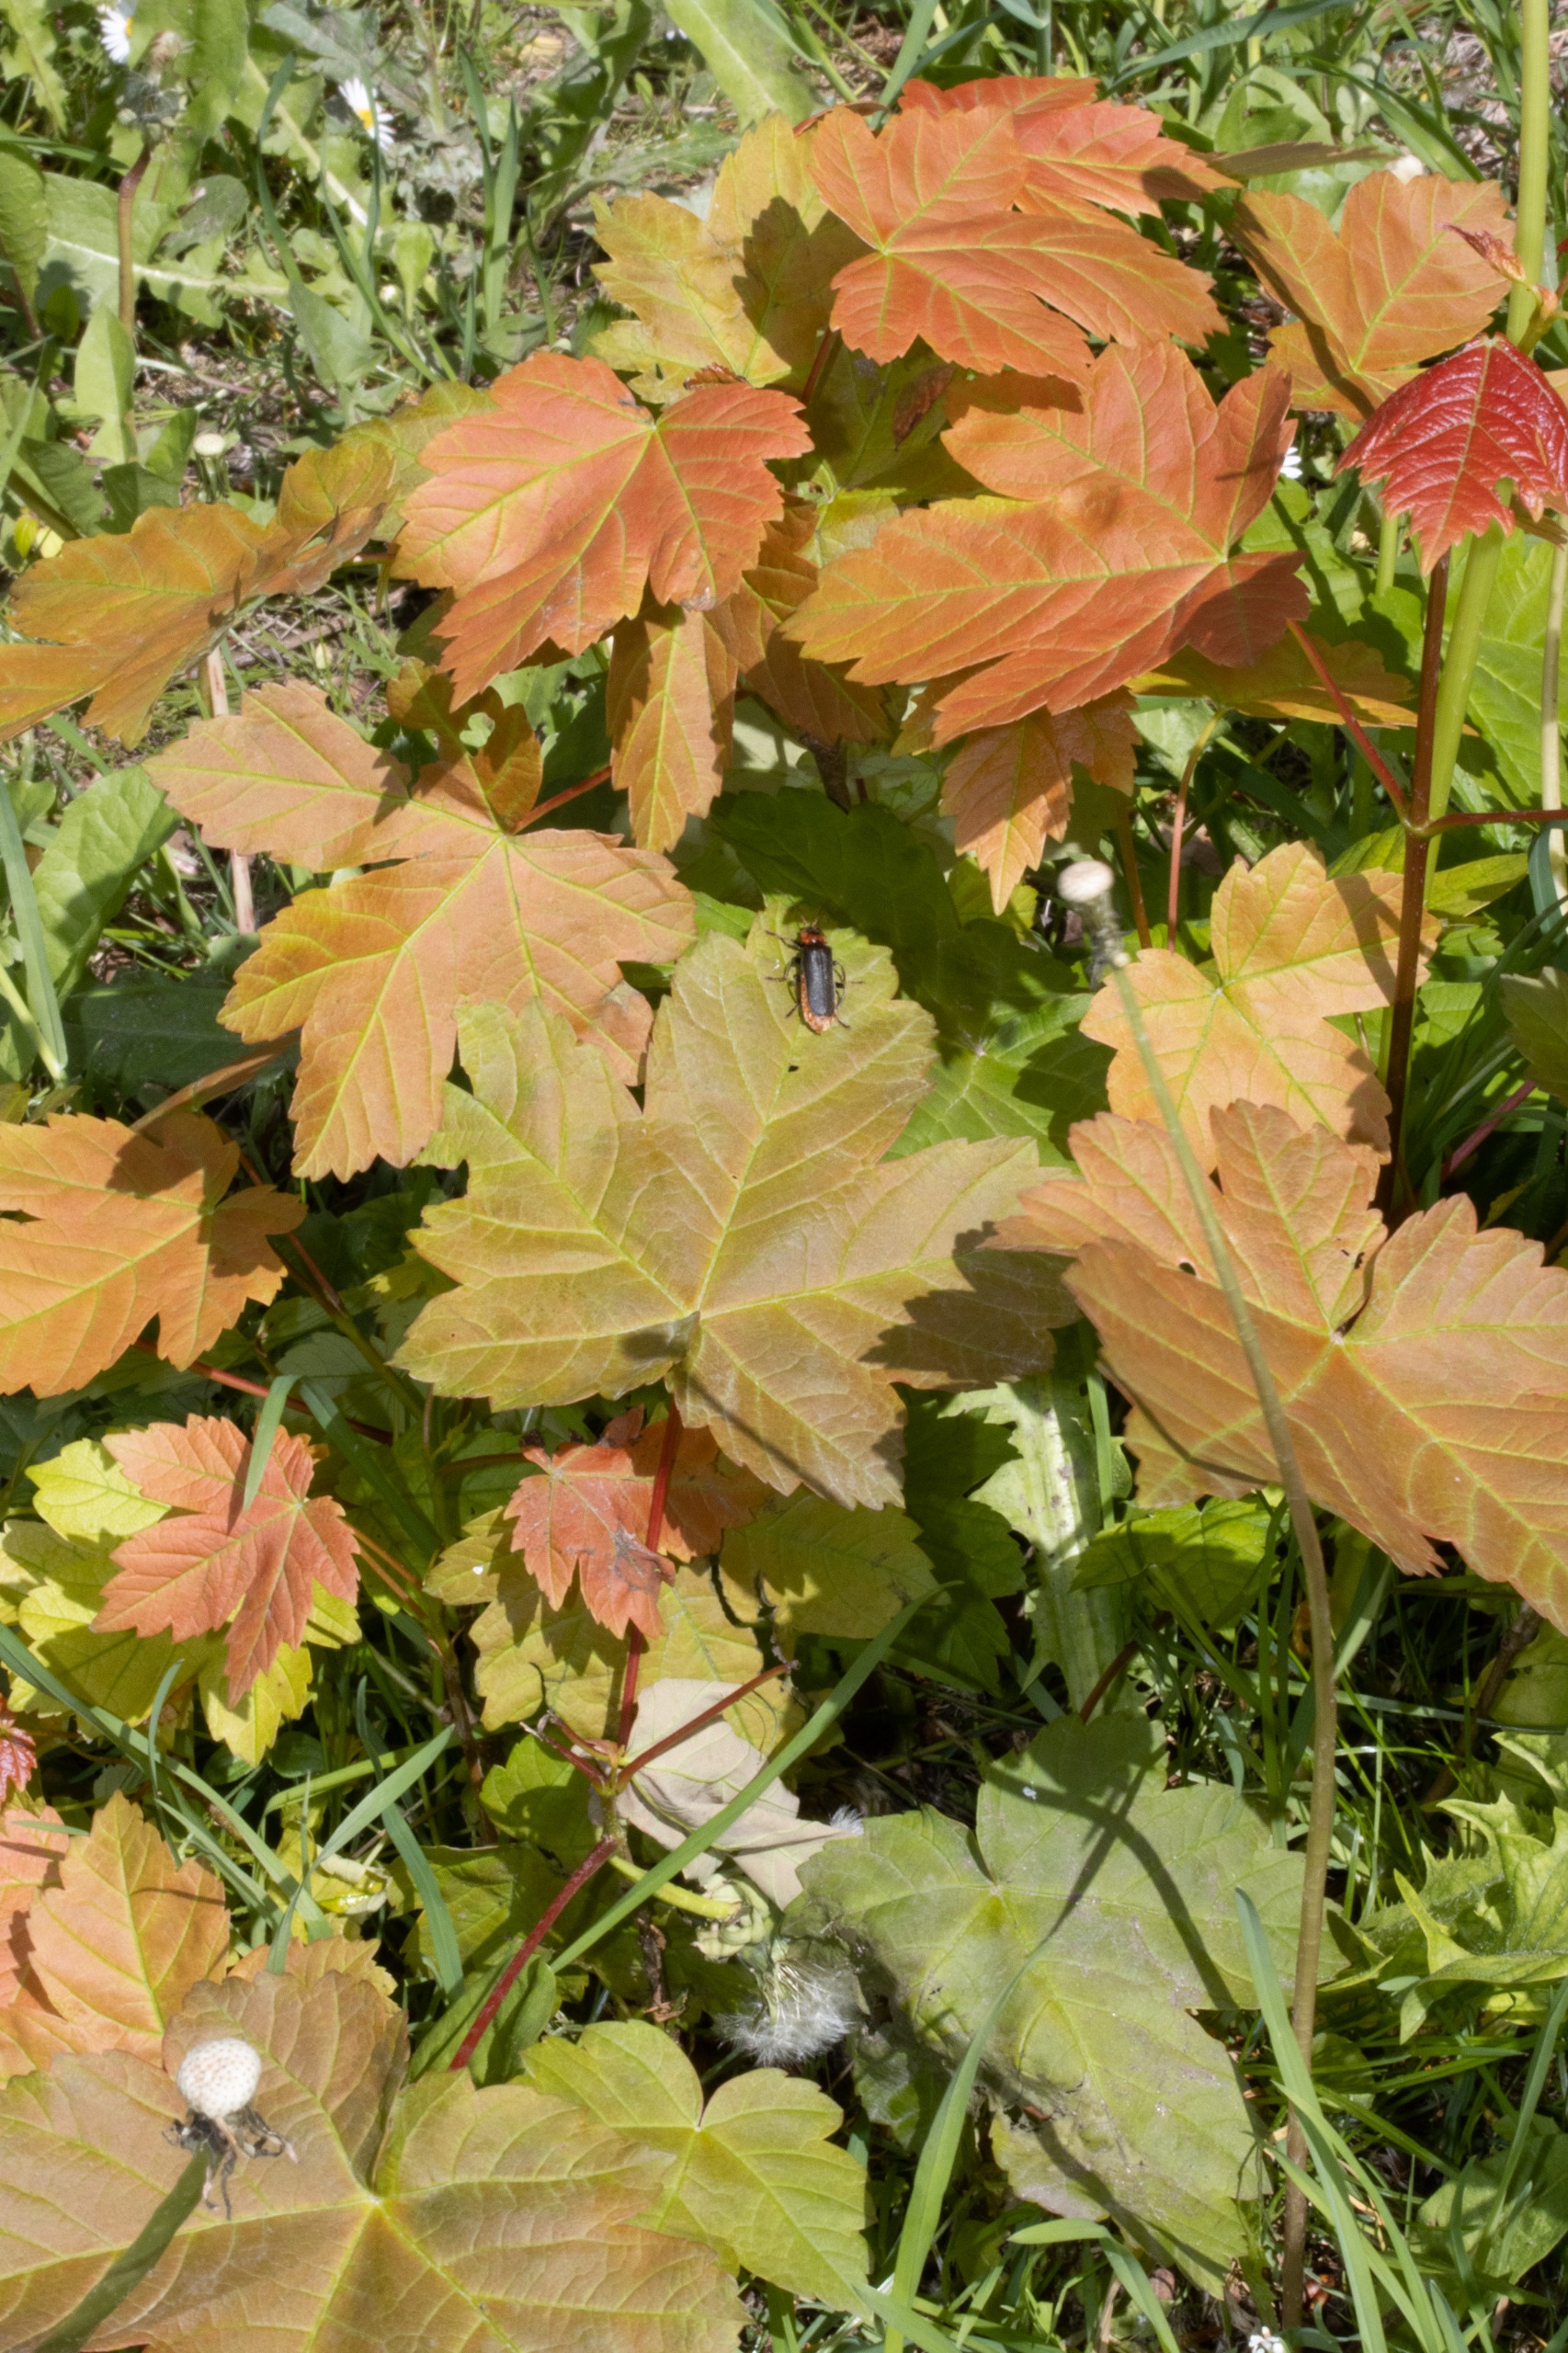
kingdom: Plantae
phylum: Tracheophyta
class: Magnoliopsida
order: Sapindales
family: Sapindaceae
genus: Acer
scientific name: Acer pseudoplatanus
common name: Ahorn
